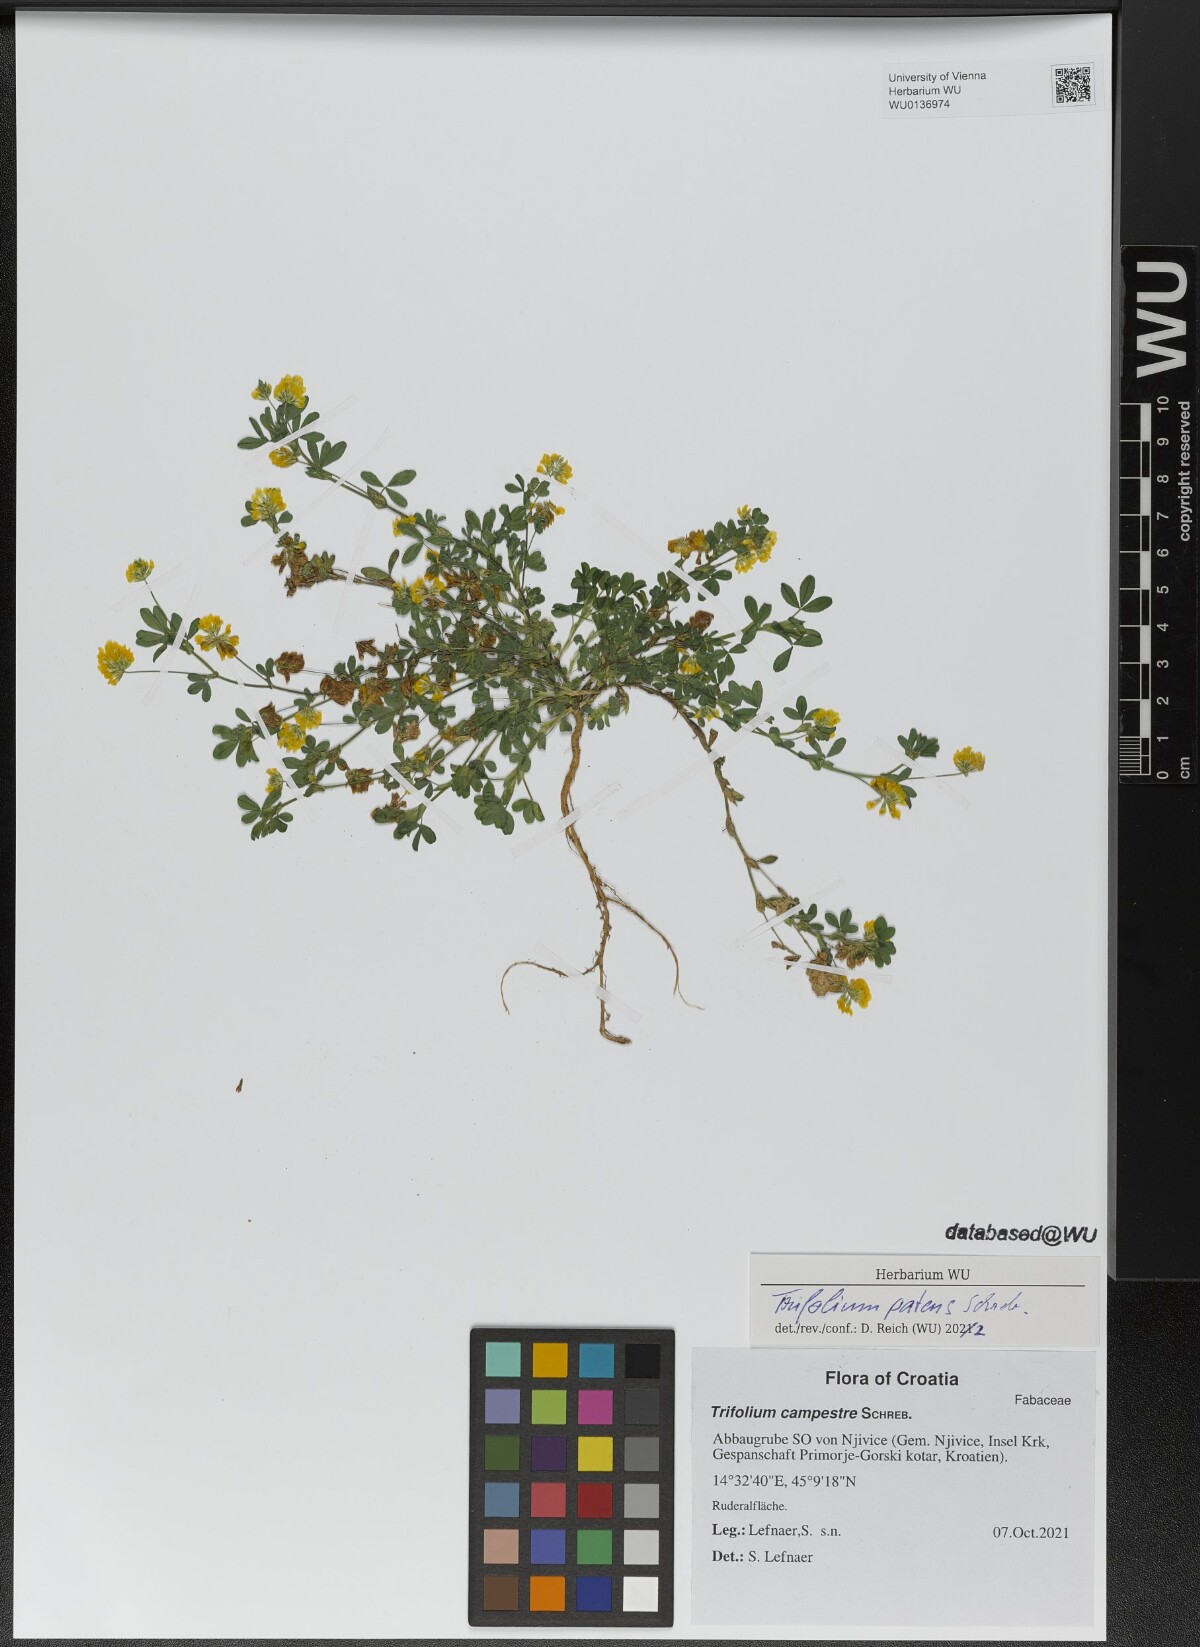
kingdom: Plantae
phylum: Tracheophyta
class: Magnoliopsida
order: Fabales
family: Fabaceae
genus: Trifolium
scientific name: Trifolium patens
